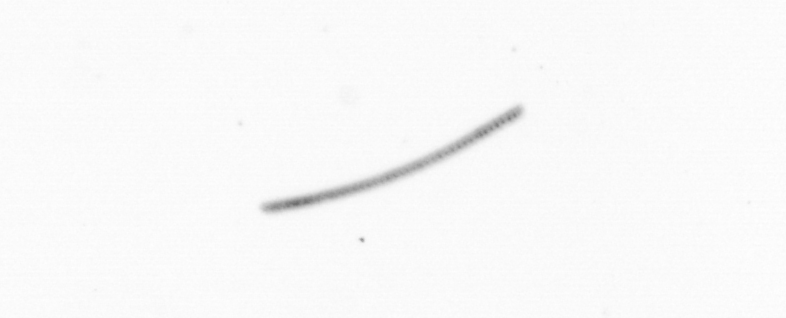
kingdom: Chromista
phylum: Ochrophyta
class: Bacillariophyceae
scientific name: Bacillariophyceae
